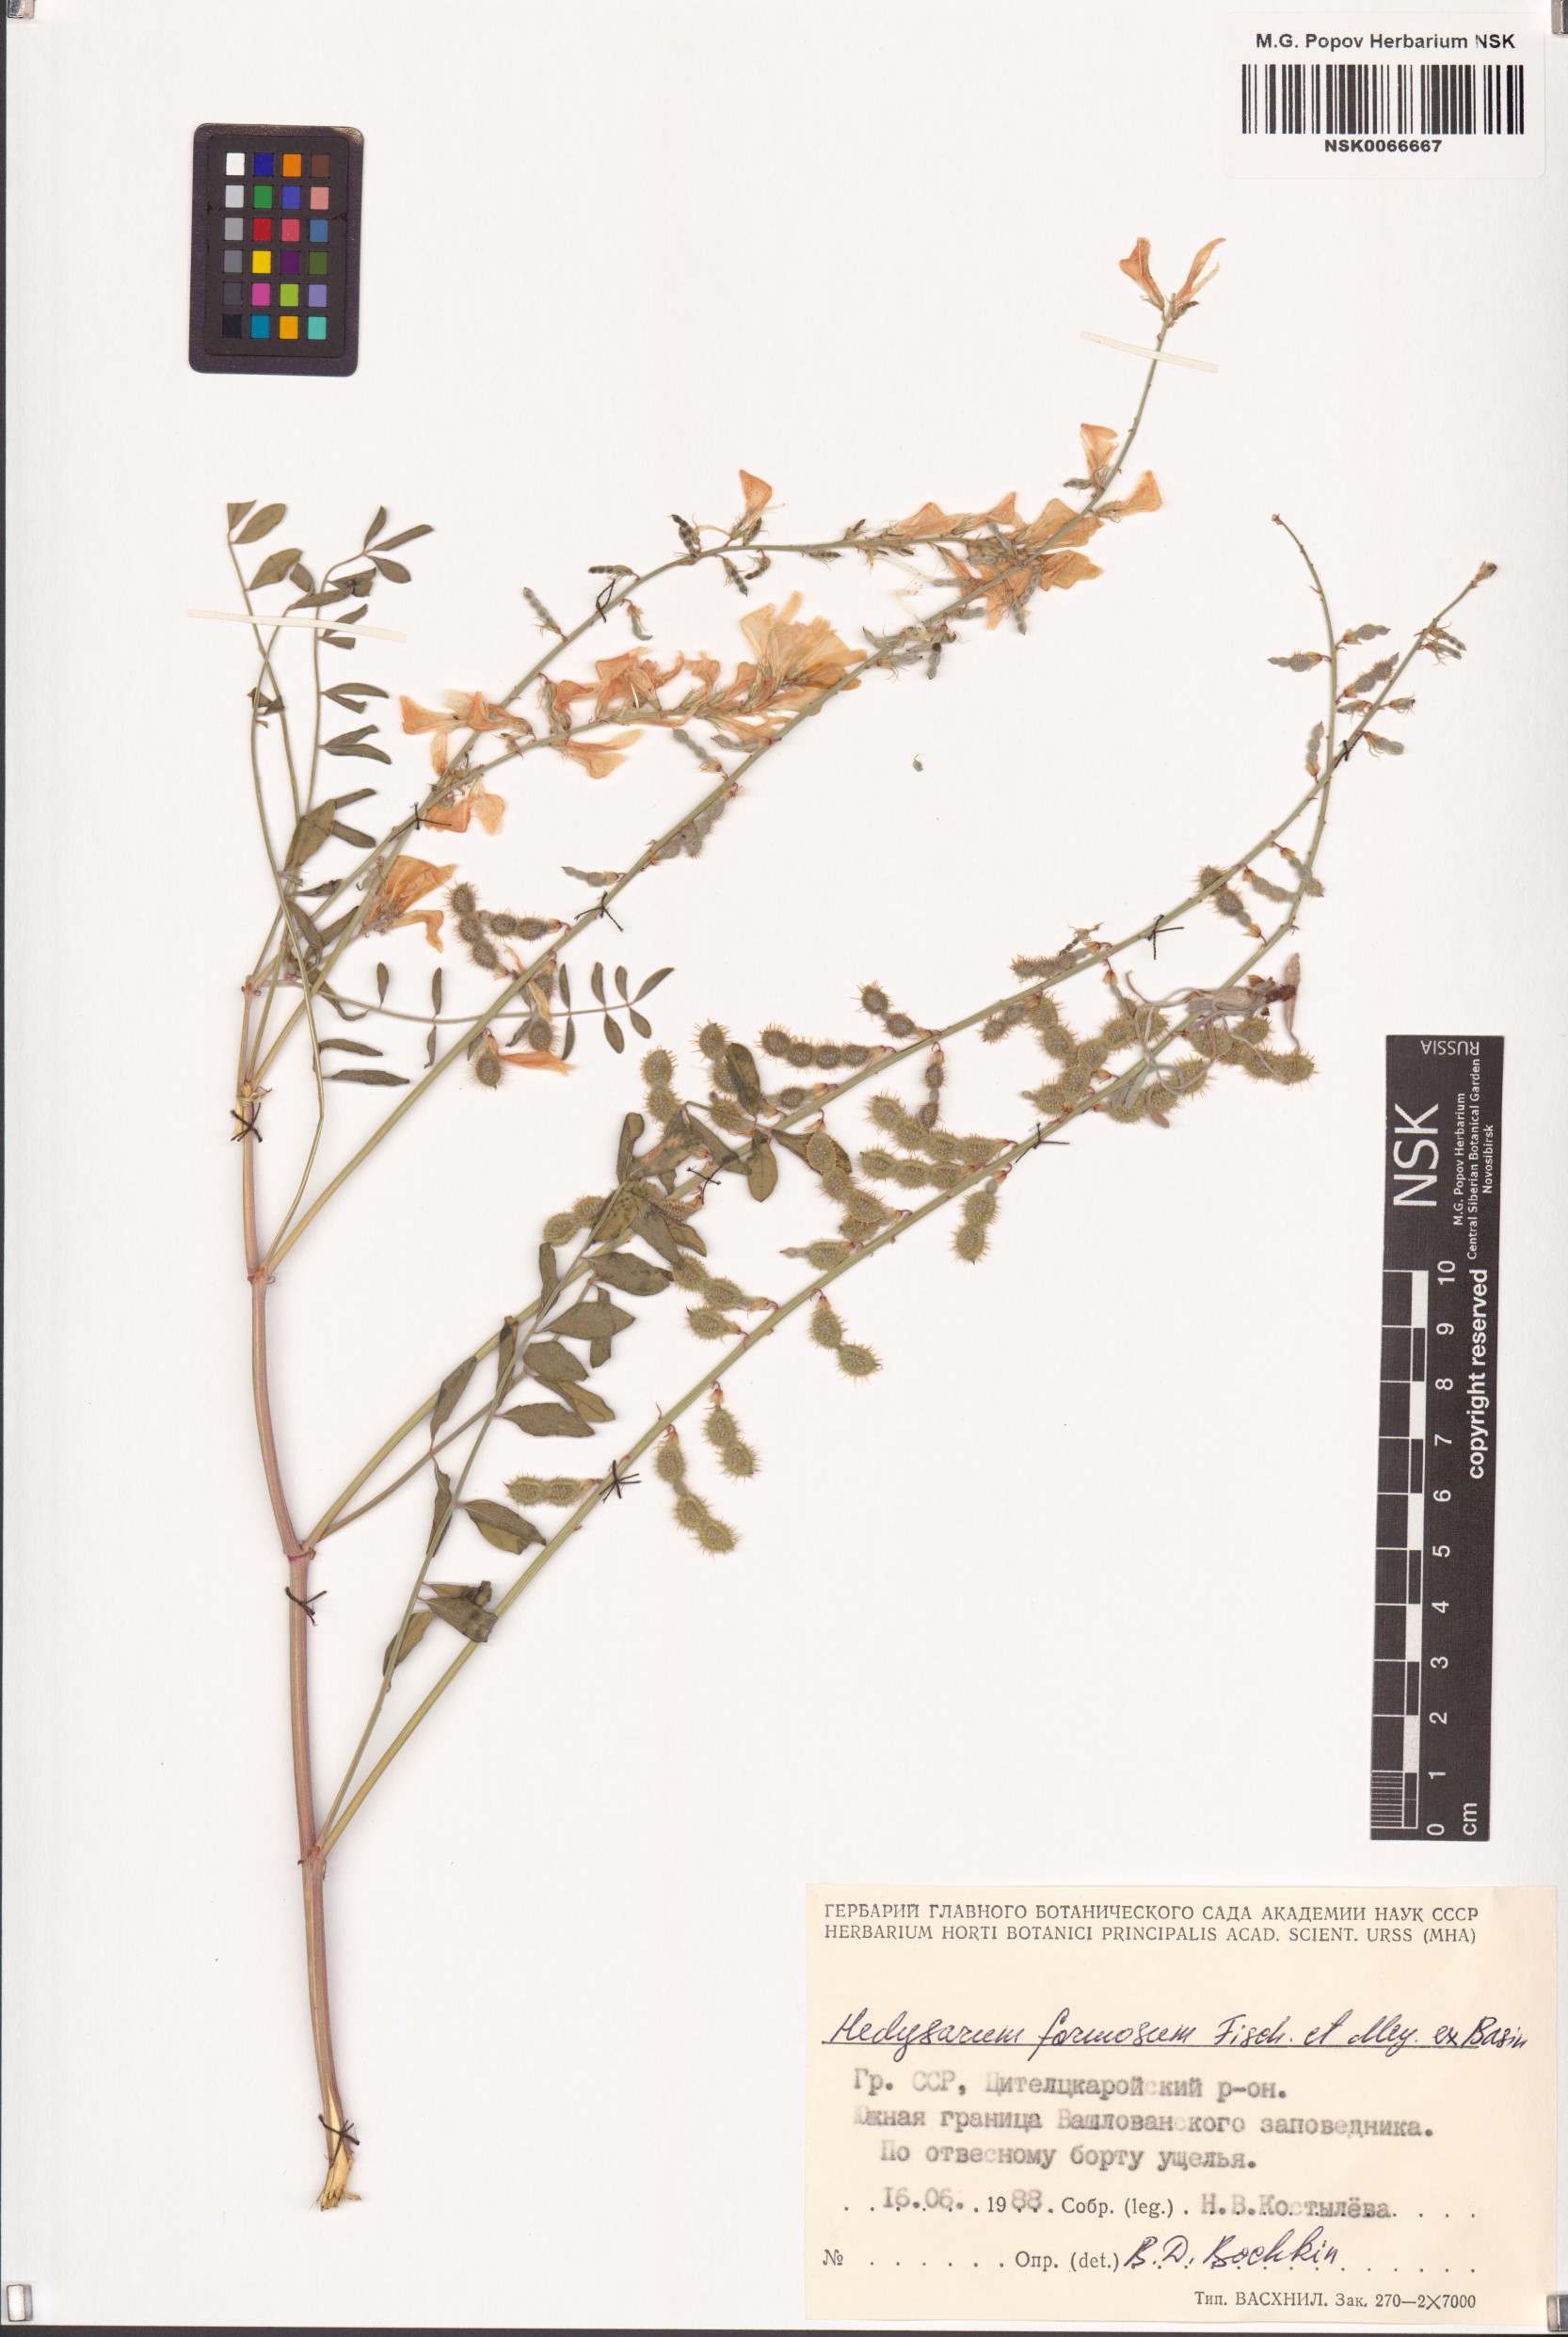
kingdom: Plantae
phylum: Tracheophyta
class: Magnoliopsida
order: Fabales
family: Fabaceae
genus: Hedysarum
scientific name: Hedysarum formosum
